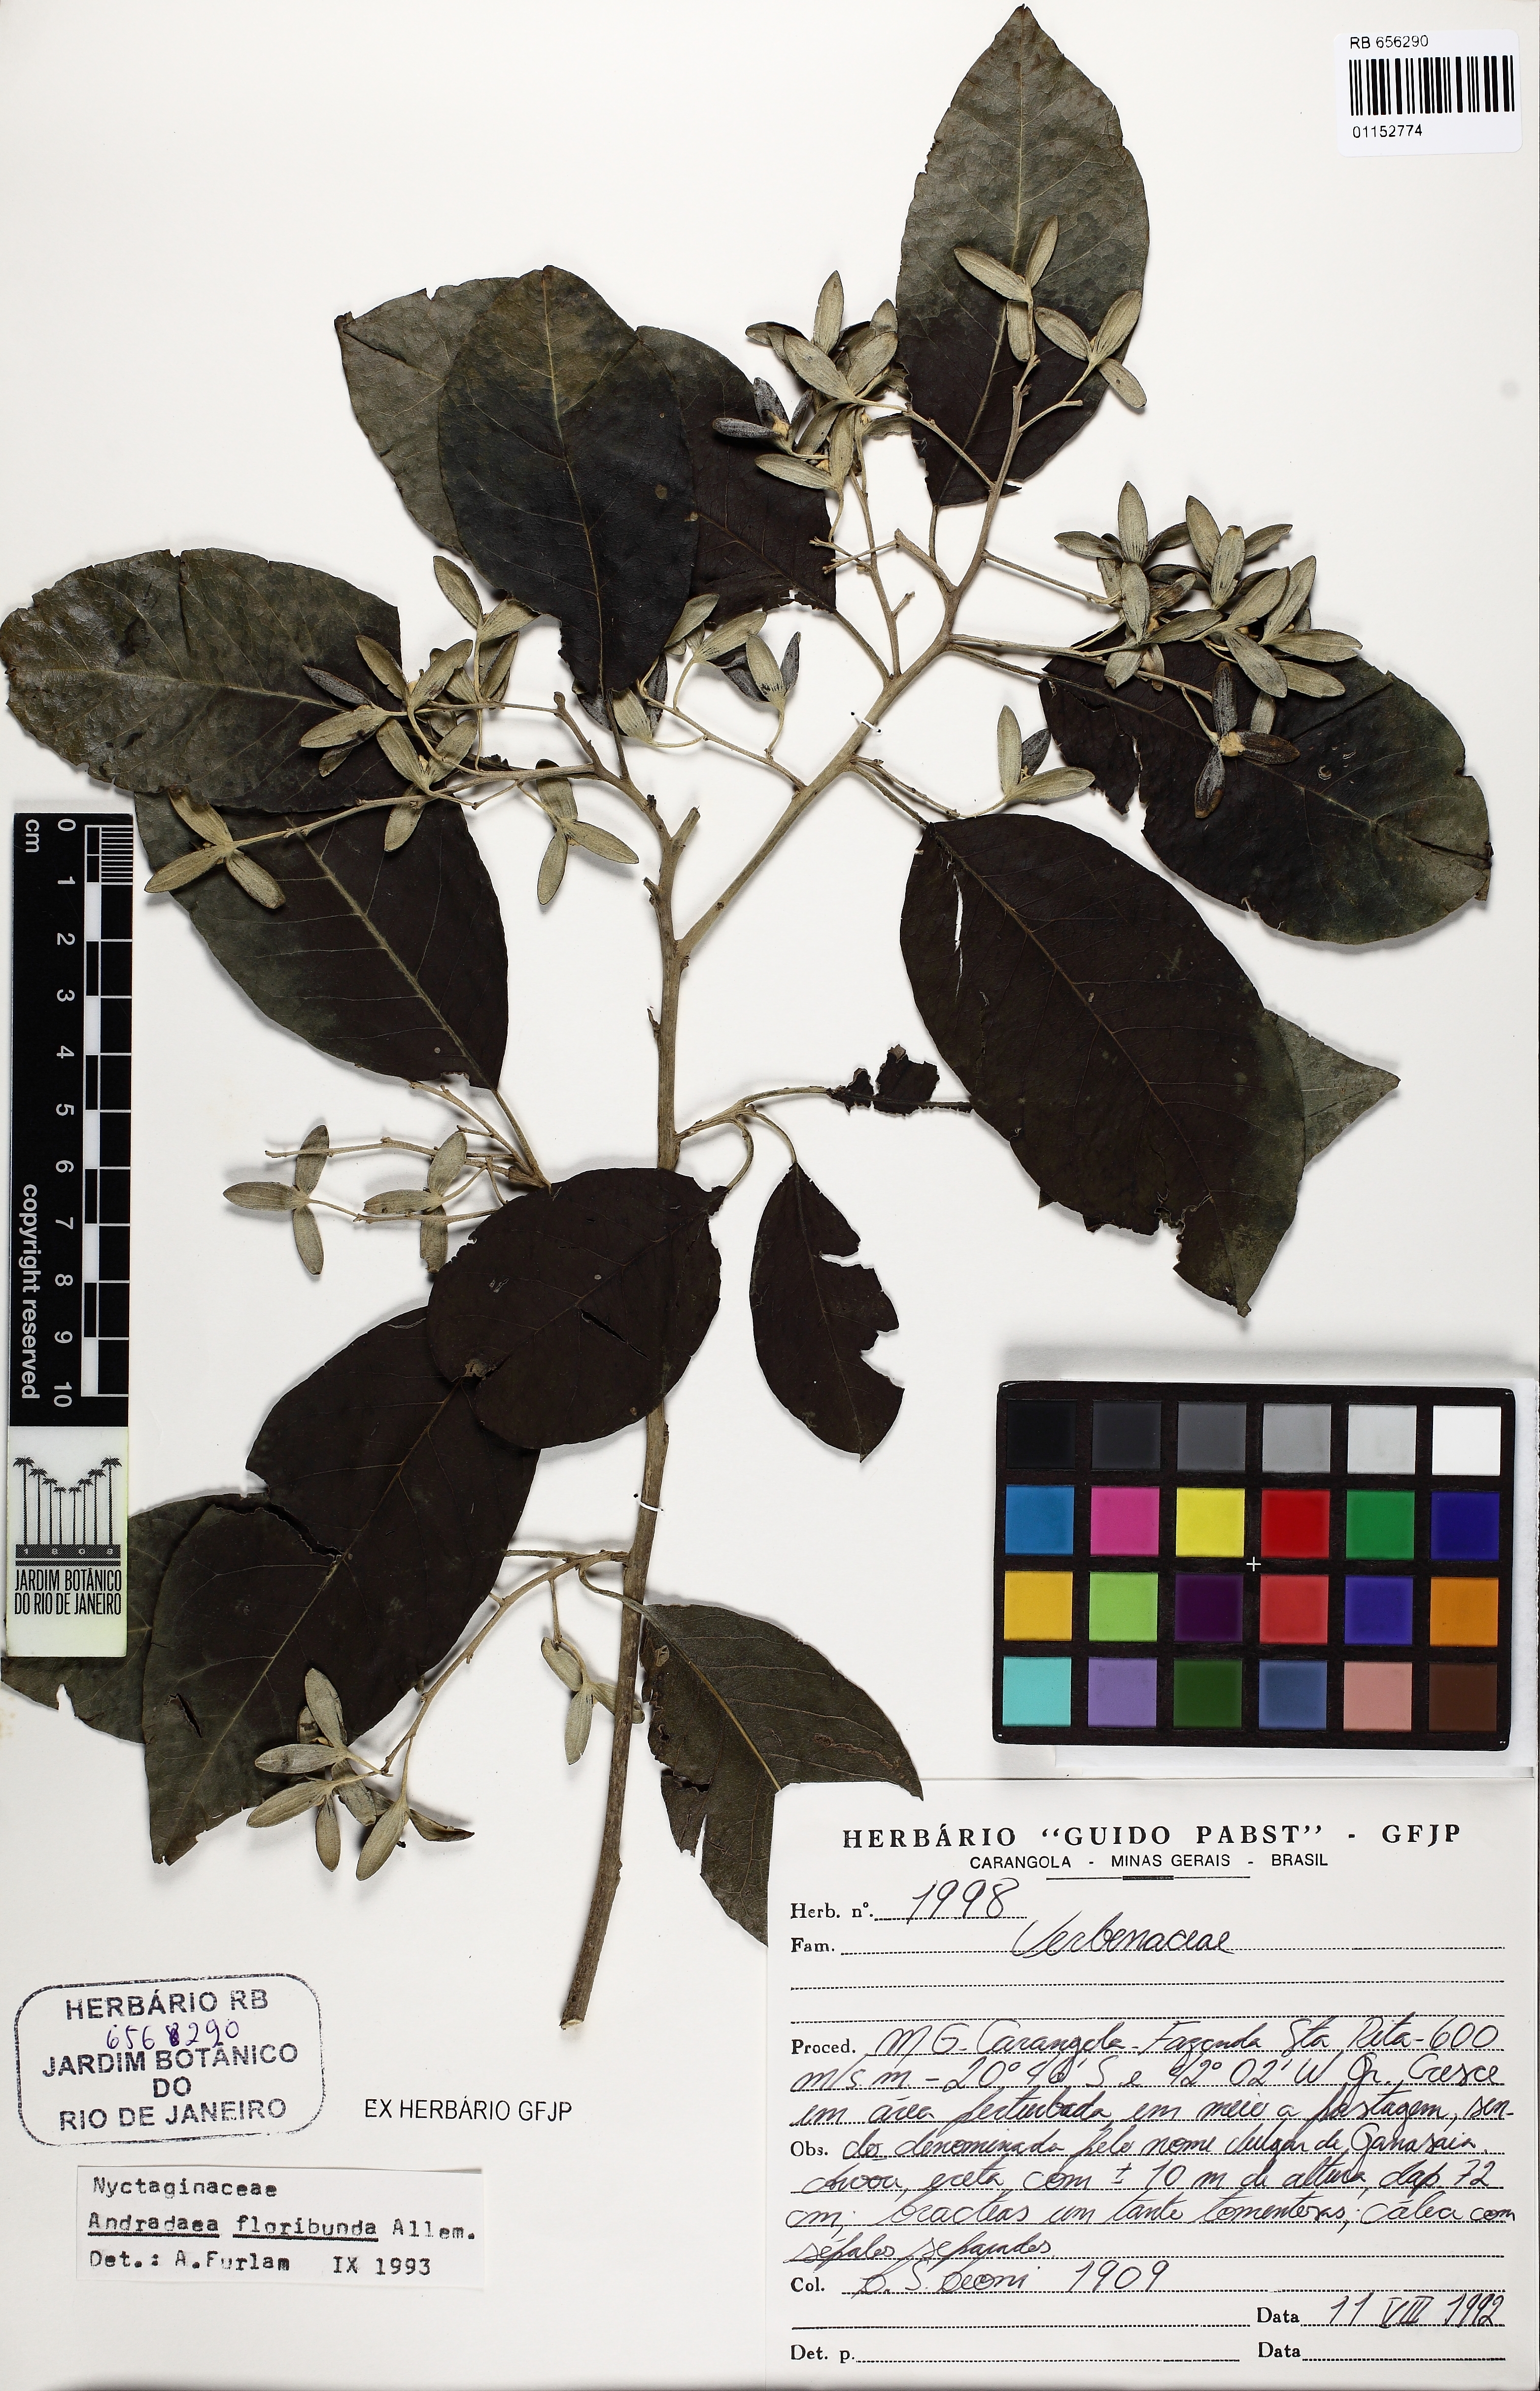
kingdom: Plantae
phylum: Tracheophyta
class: Magnoliopsida
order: Caryophyllales
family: Nyctaginaceae
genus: Andradea
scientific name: Andradea floribunda
